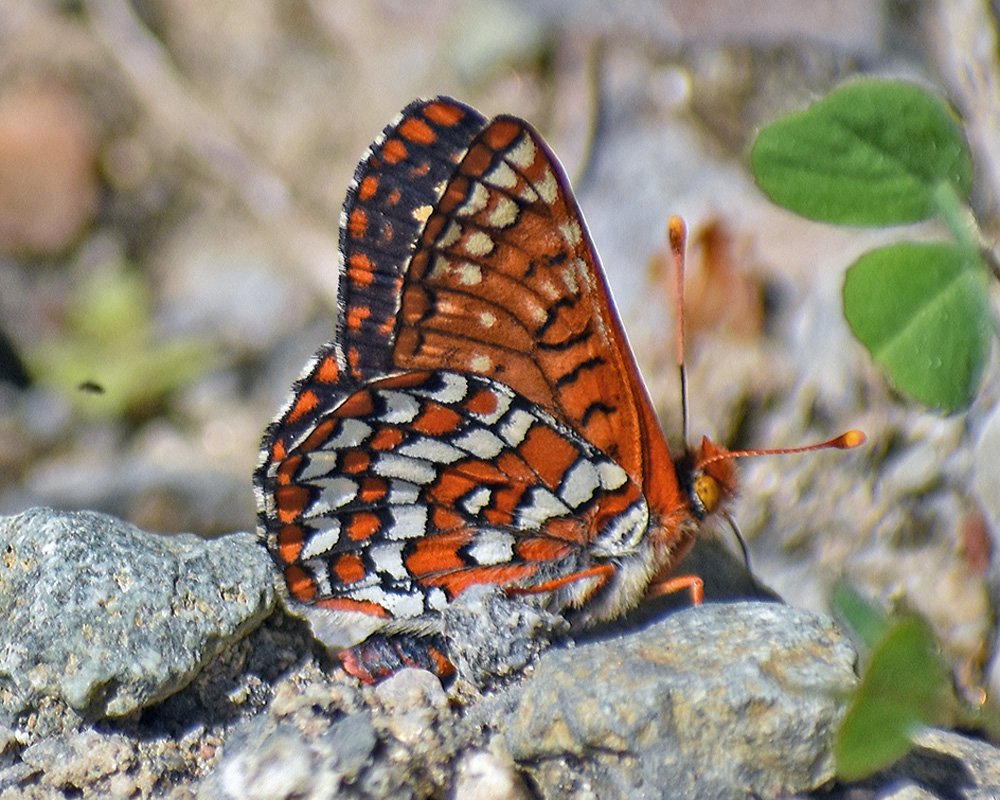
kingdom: Animalia
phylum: Arthropoda
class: Insecta
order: Lepidoptera
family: Nymphalidae
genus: Occidryas
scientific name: Occidryas anicia
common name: Anicia Checkerspot
